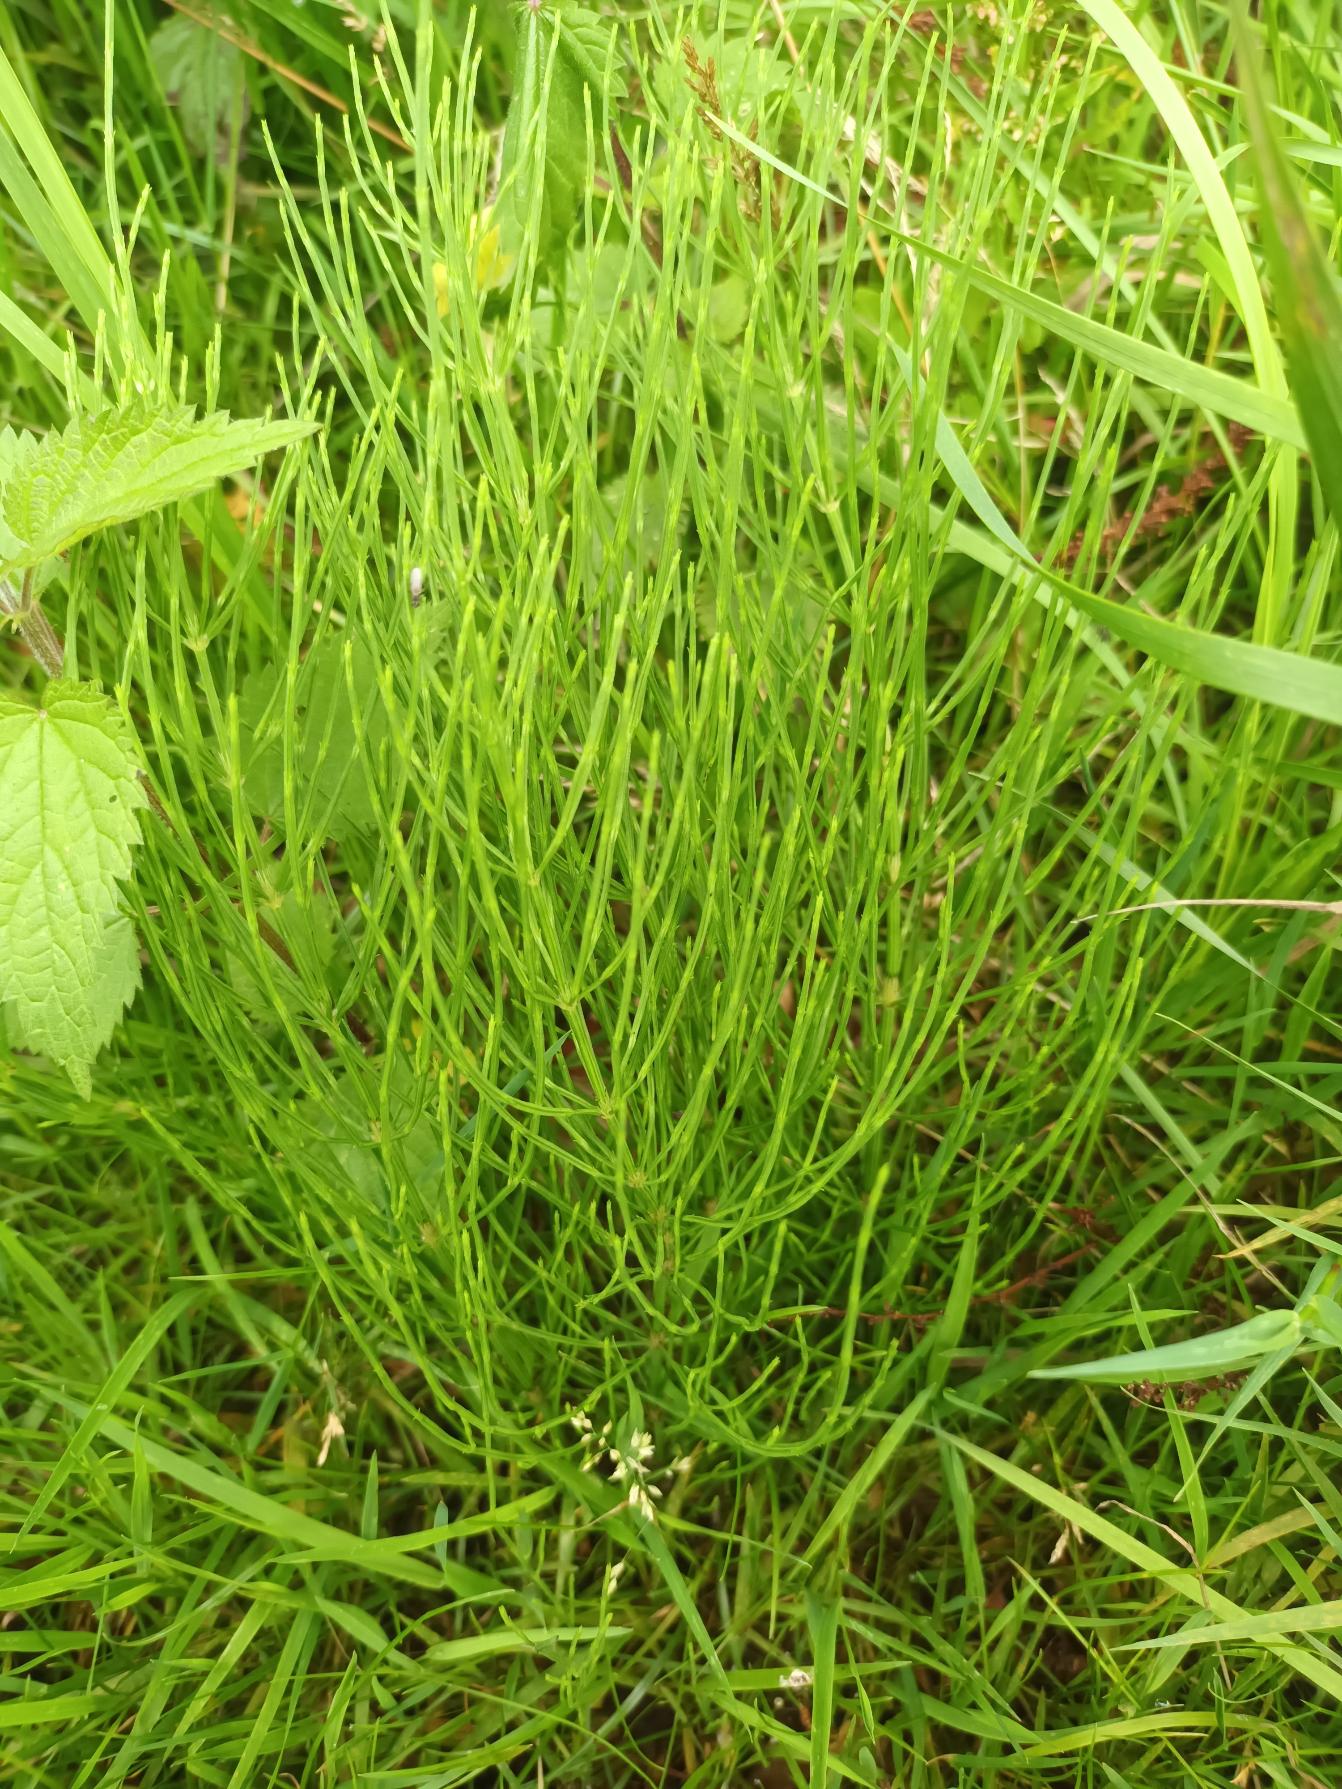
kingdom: Plantae
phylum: Tracheophyta
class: Polypodiopsida
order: Equisetales
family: Equisetaceae
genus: Equisetum
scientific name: Equisetum arvense
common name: Ager-padderok
